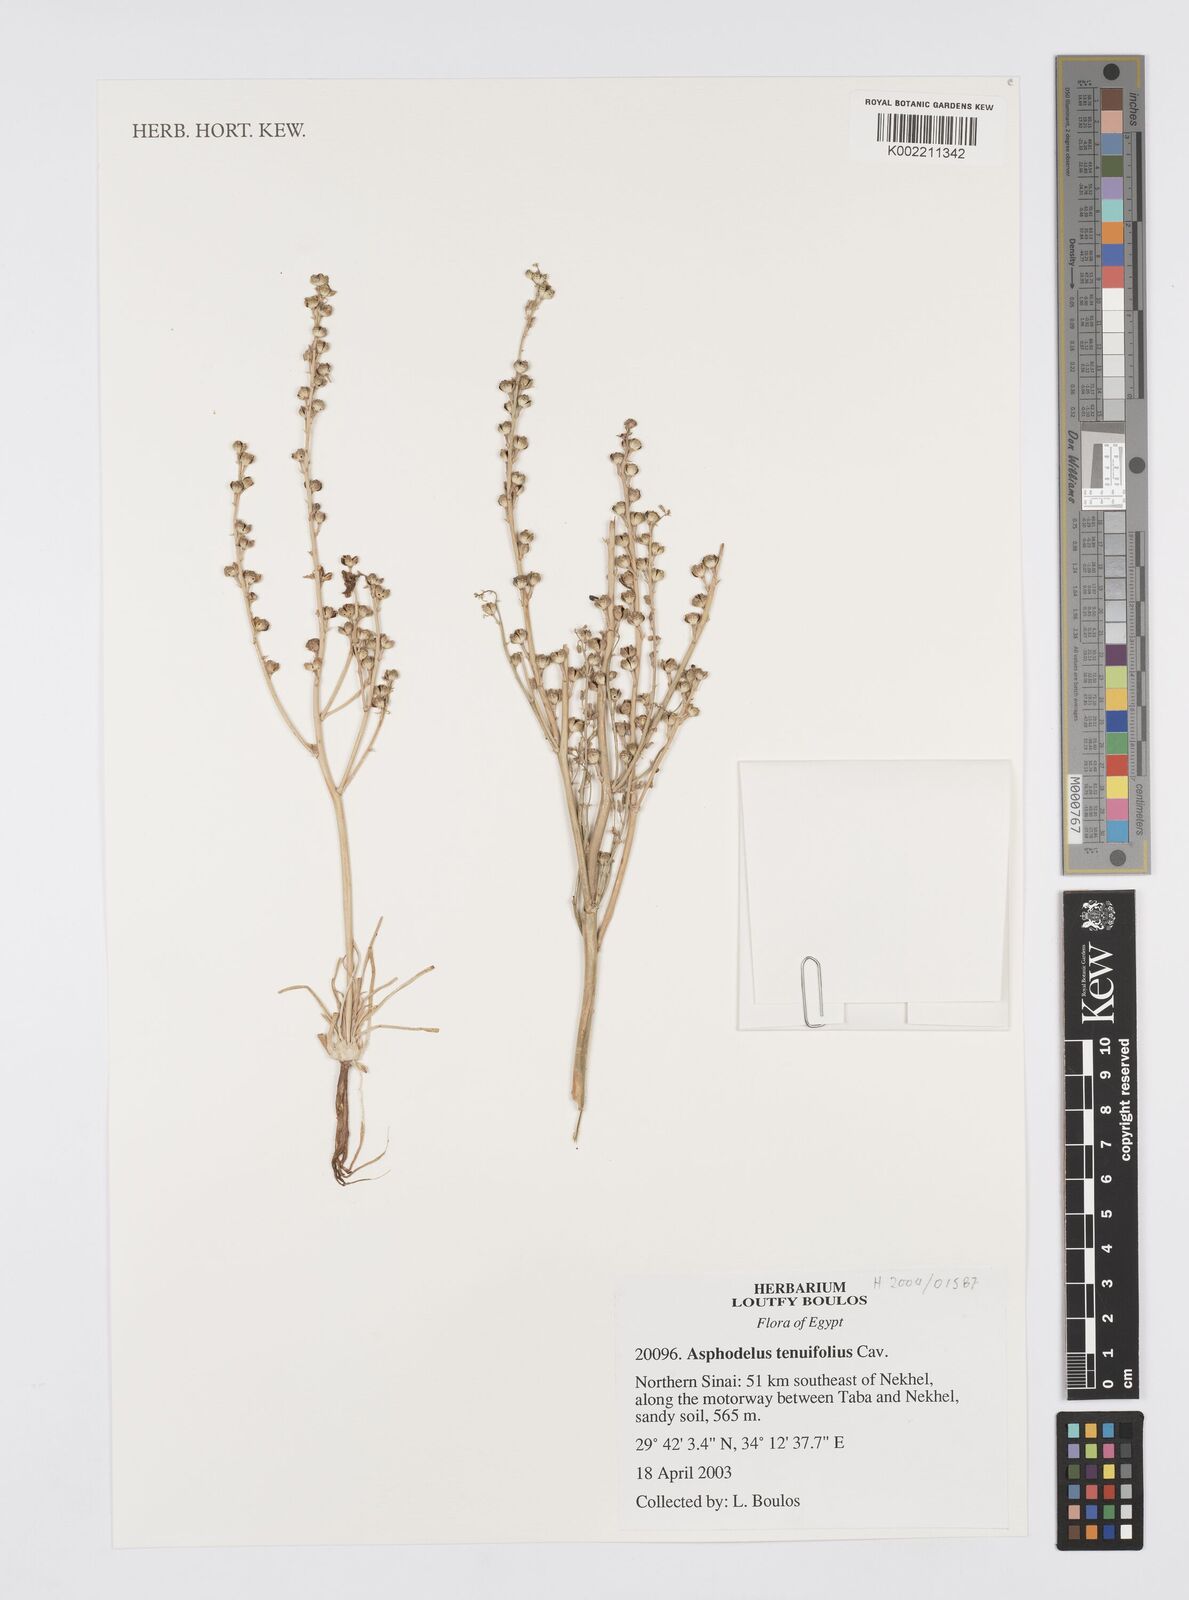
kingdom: Plantae
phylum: Tracheophyta
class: Liliopsida
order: Asparagales
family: Asphodelaceae
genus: Asphodelus
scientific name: Asphodelus tenuifolius
